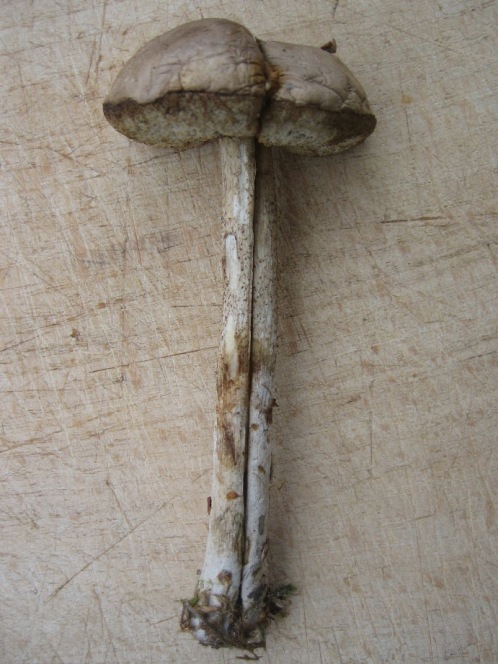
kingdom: Fungi
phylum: Basidiomycota
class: Agaricomycetes
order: Boletales
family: Boletaceae
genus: Leccinum
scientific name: Leccinum schistophilum
